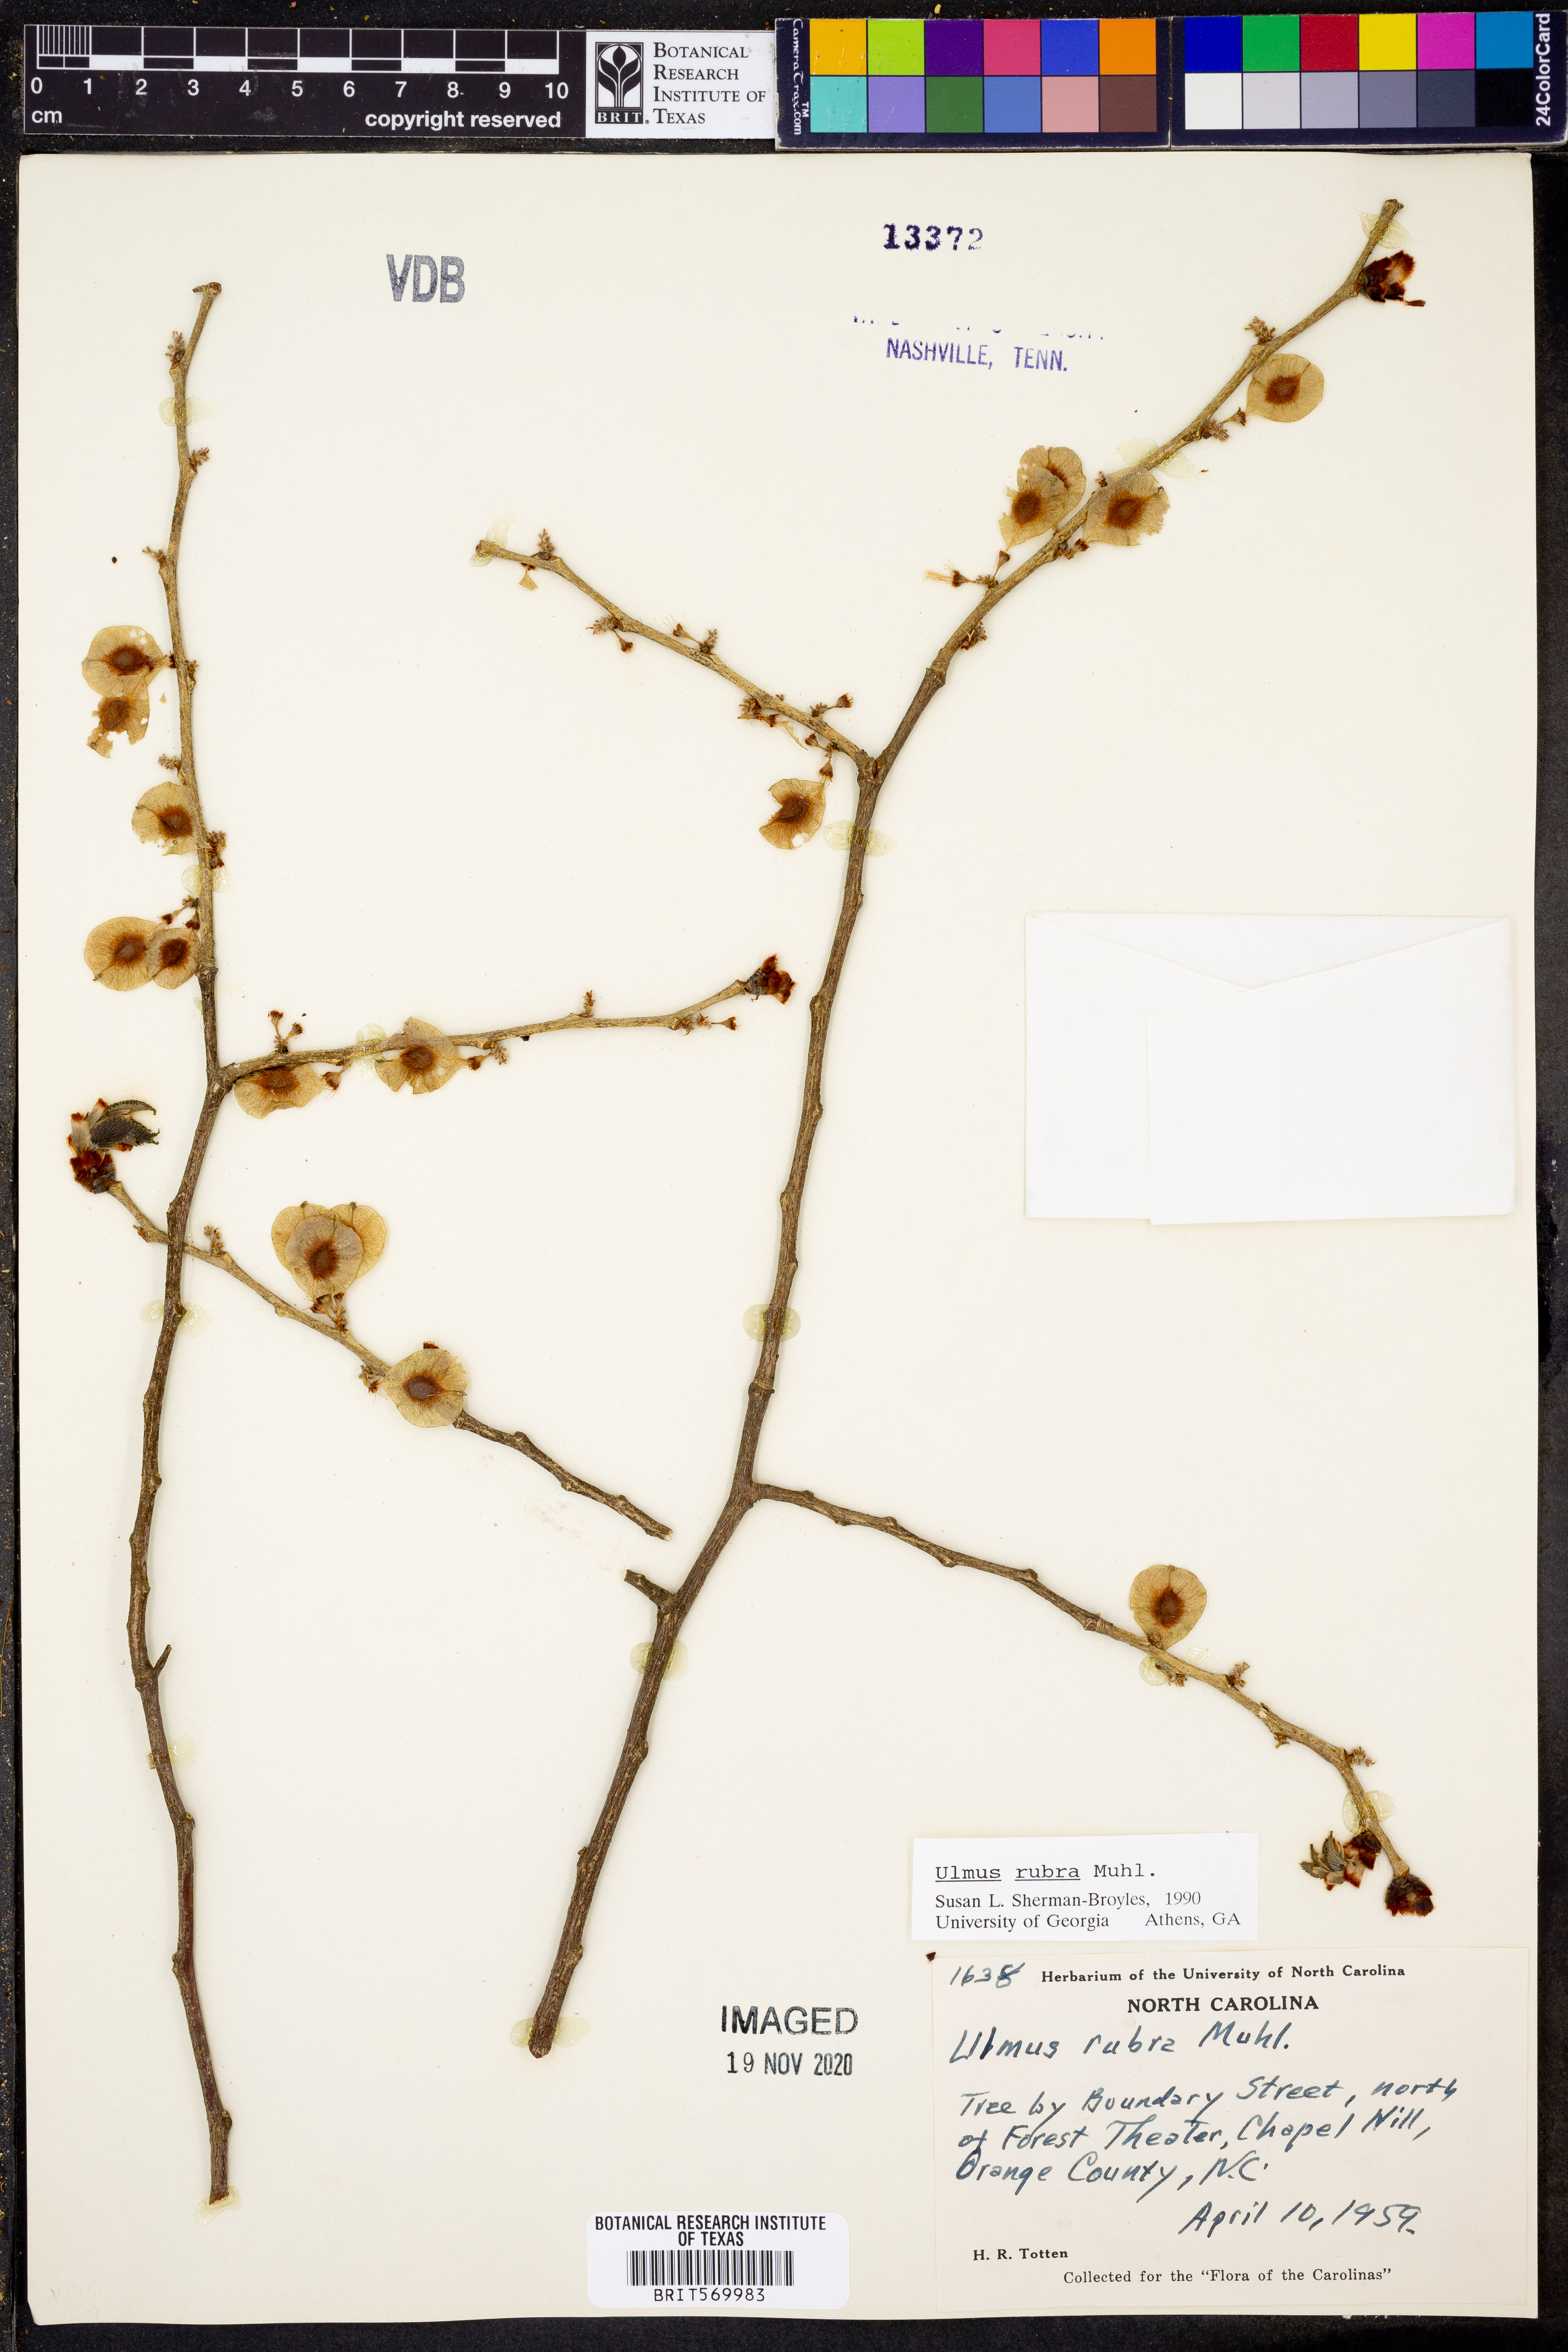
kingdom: Plantae
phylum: Tracheophyta
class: Magnoliopsida
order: Rosales
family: Ulmaceae
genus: Ulmus
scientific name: Ulmus rubra
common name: Slippery elm
